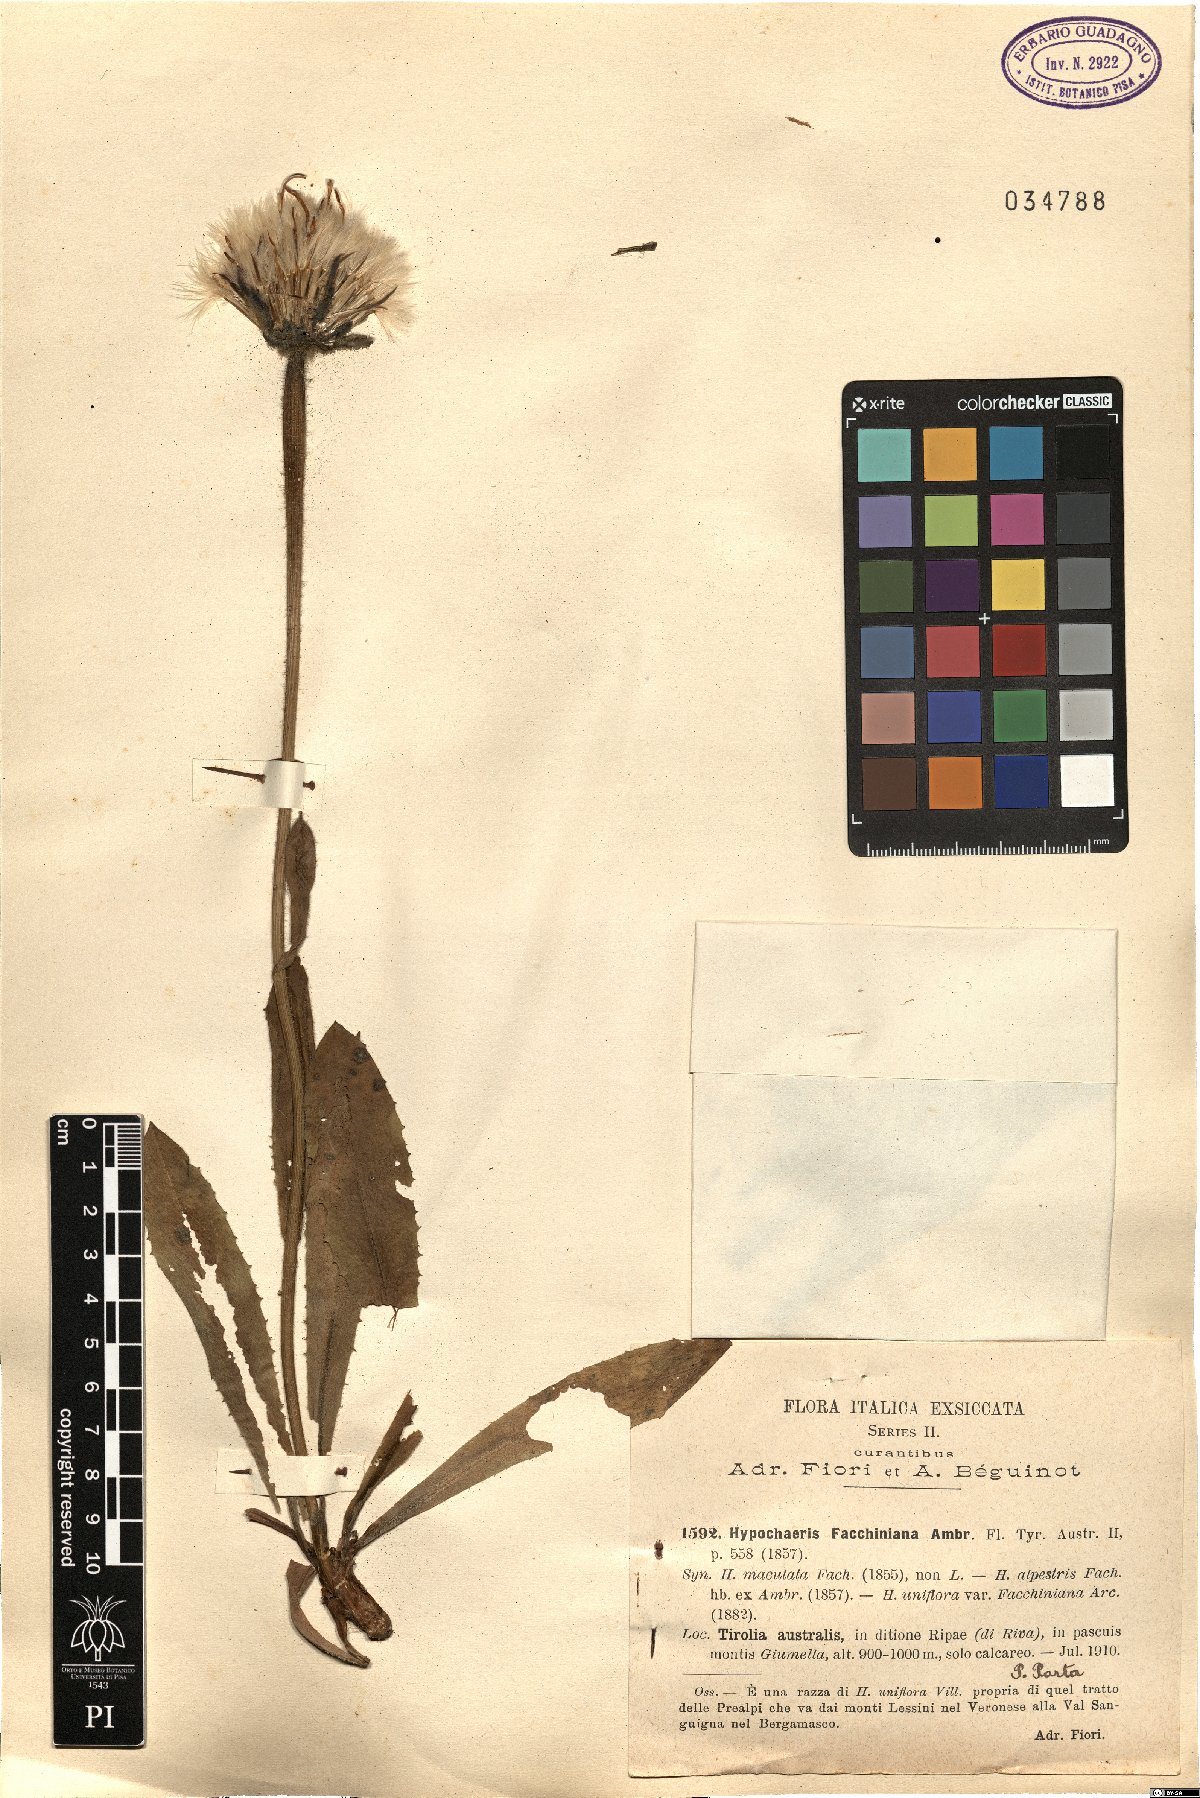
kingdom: Plantae
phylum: Tracheophyta
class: Magnoliopsida
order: Asterales
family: Asteraceae
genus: Trommsdorffia
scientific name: Trommsdorffia facchiniana
